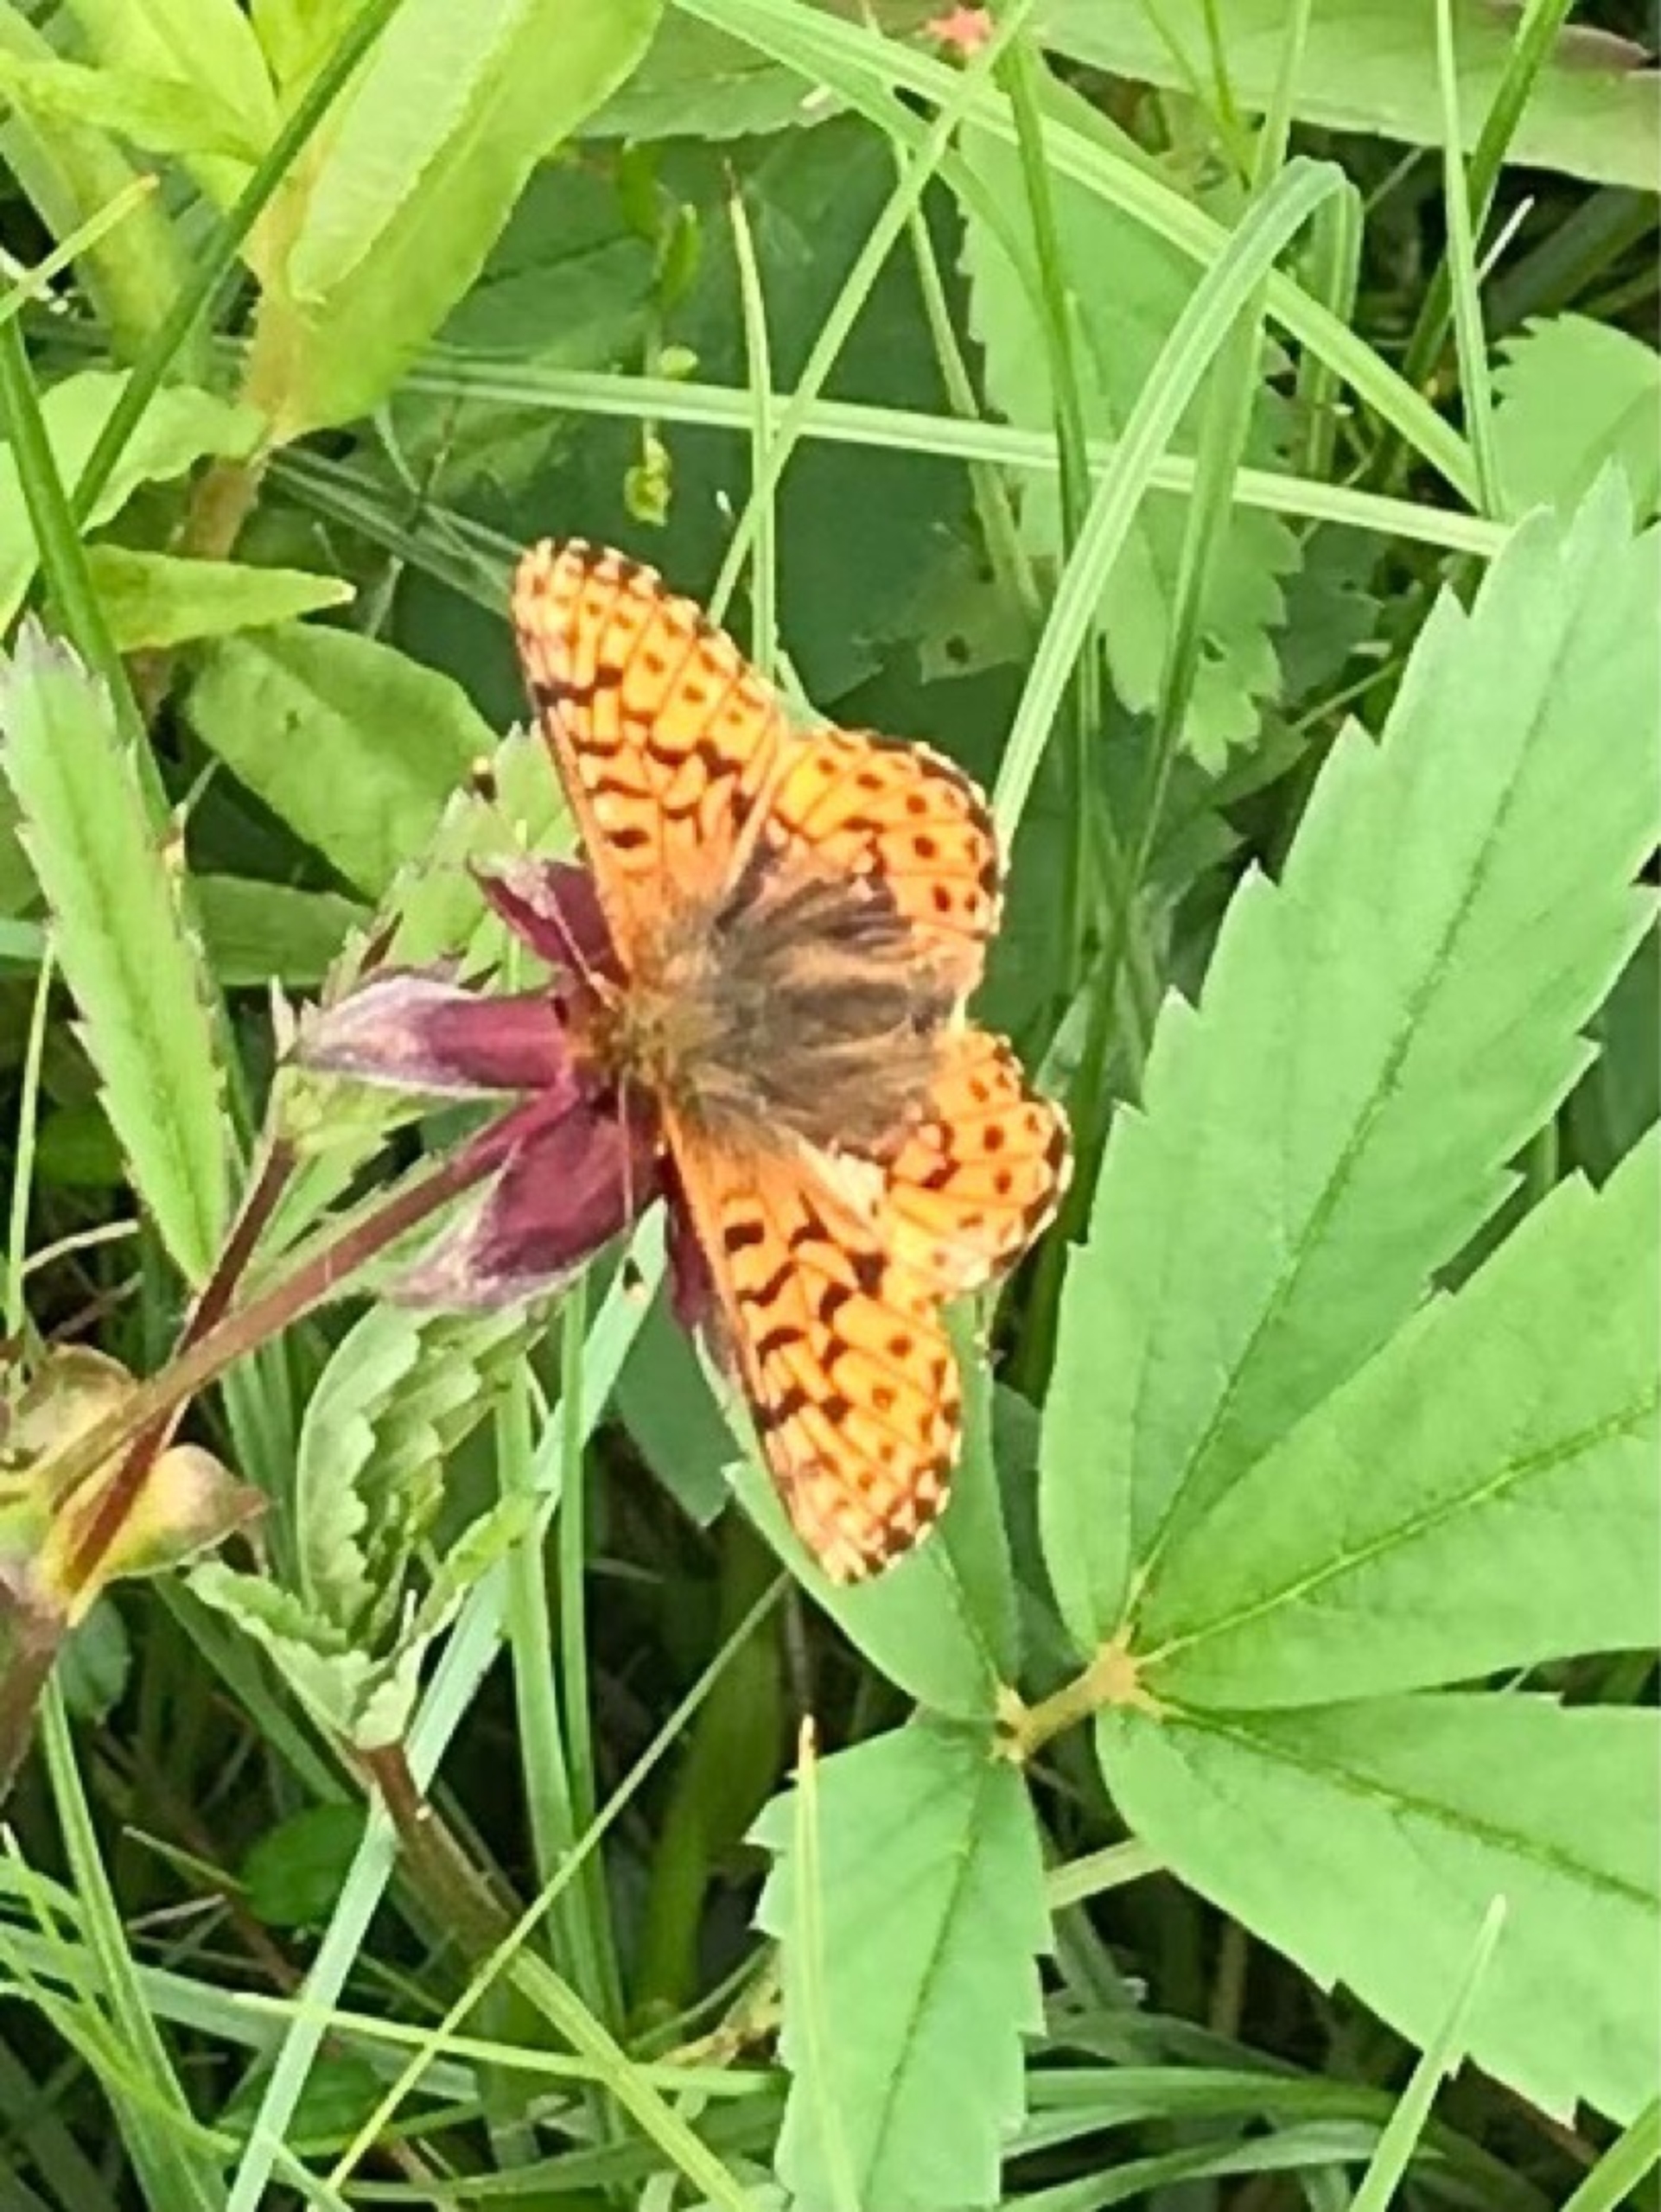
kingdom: Animalia
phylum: Arthropoda
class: Insecta
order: Lepidoptera
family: Nymphalidae
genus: Boloria
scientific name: Boloria aquilonaris
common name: Moseperlemorsommerfugl
